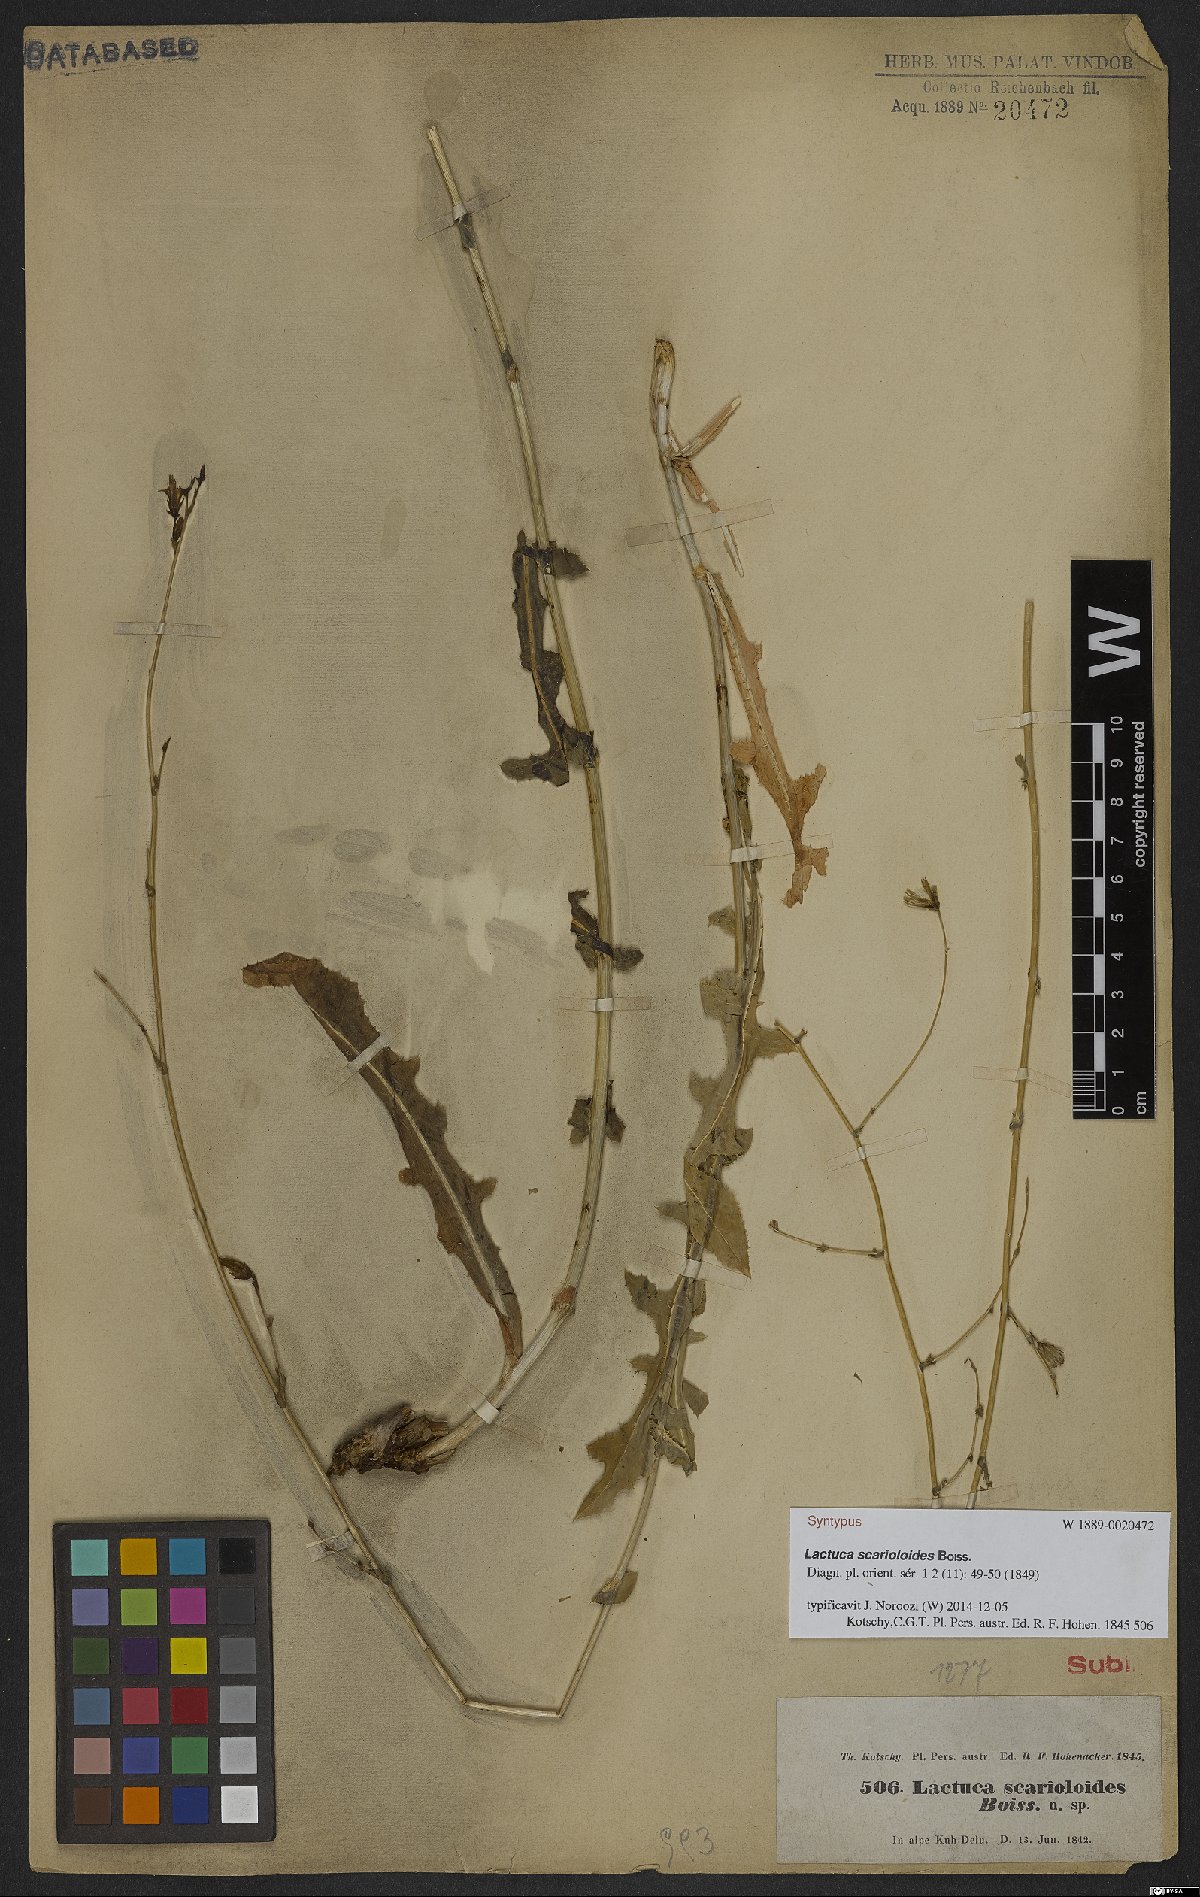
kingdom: Plantae
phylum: Tracheophyta
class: Magnoliopsida
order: Asterales
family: Asteraceae
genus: Lactuca
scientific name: Lactuca scarioloides
